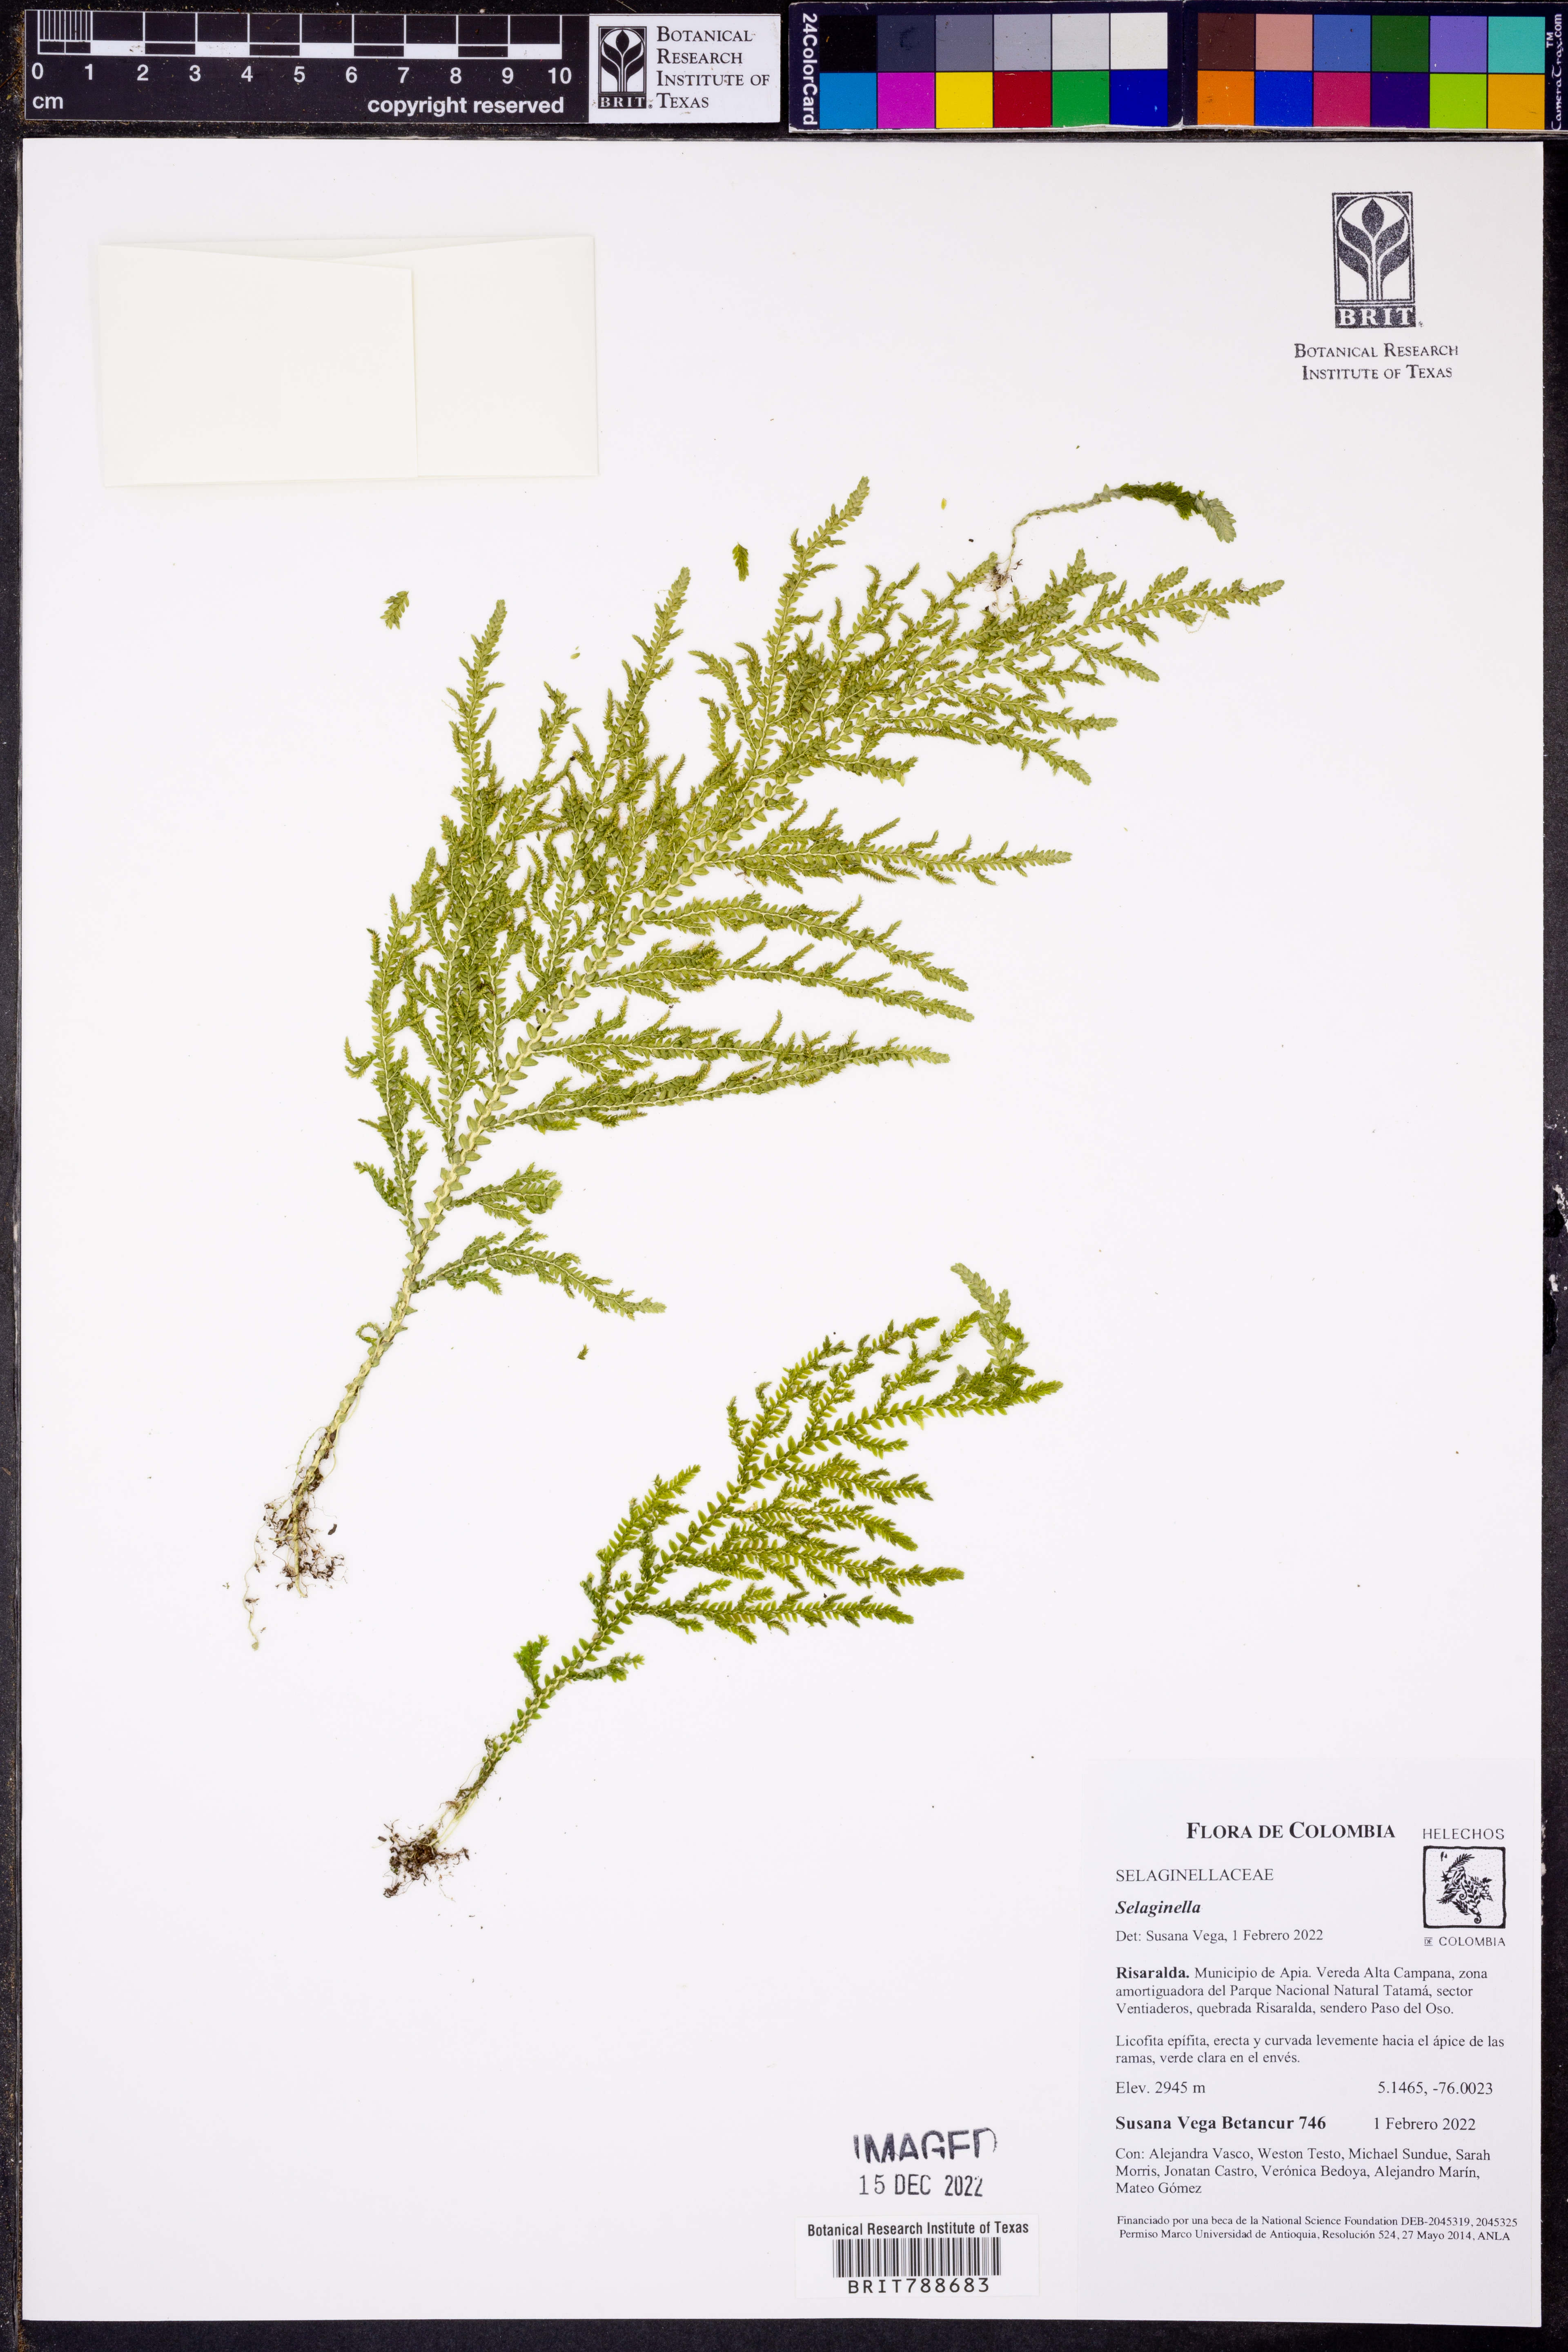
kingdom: Plantae
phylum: Tracheophyta
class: Lycopodiopsida
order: Selaginellales
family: Selaginellaceae
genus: Selaginella
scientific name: Selaginella
